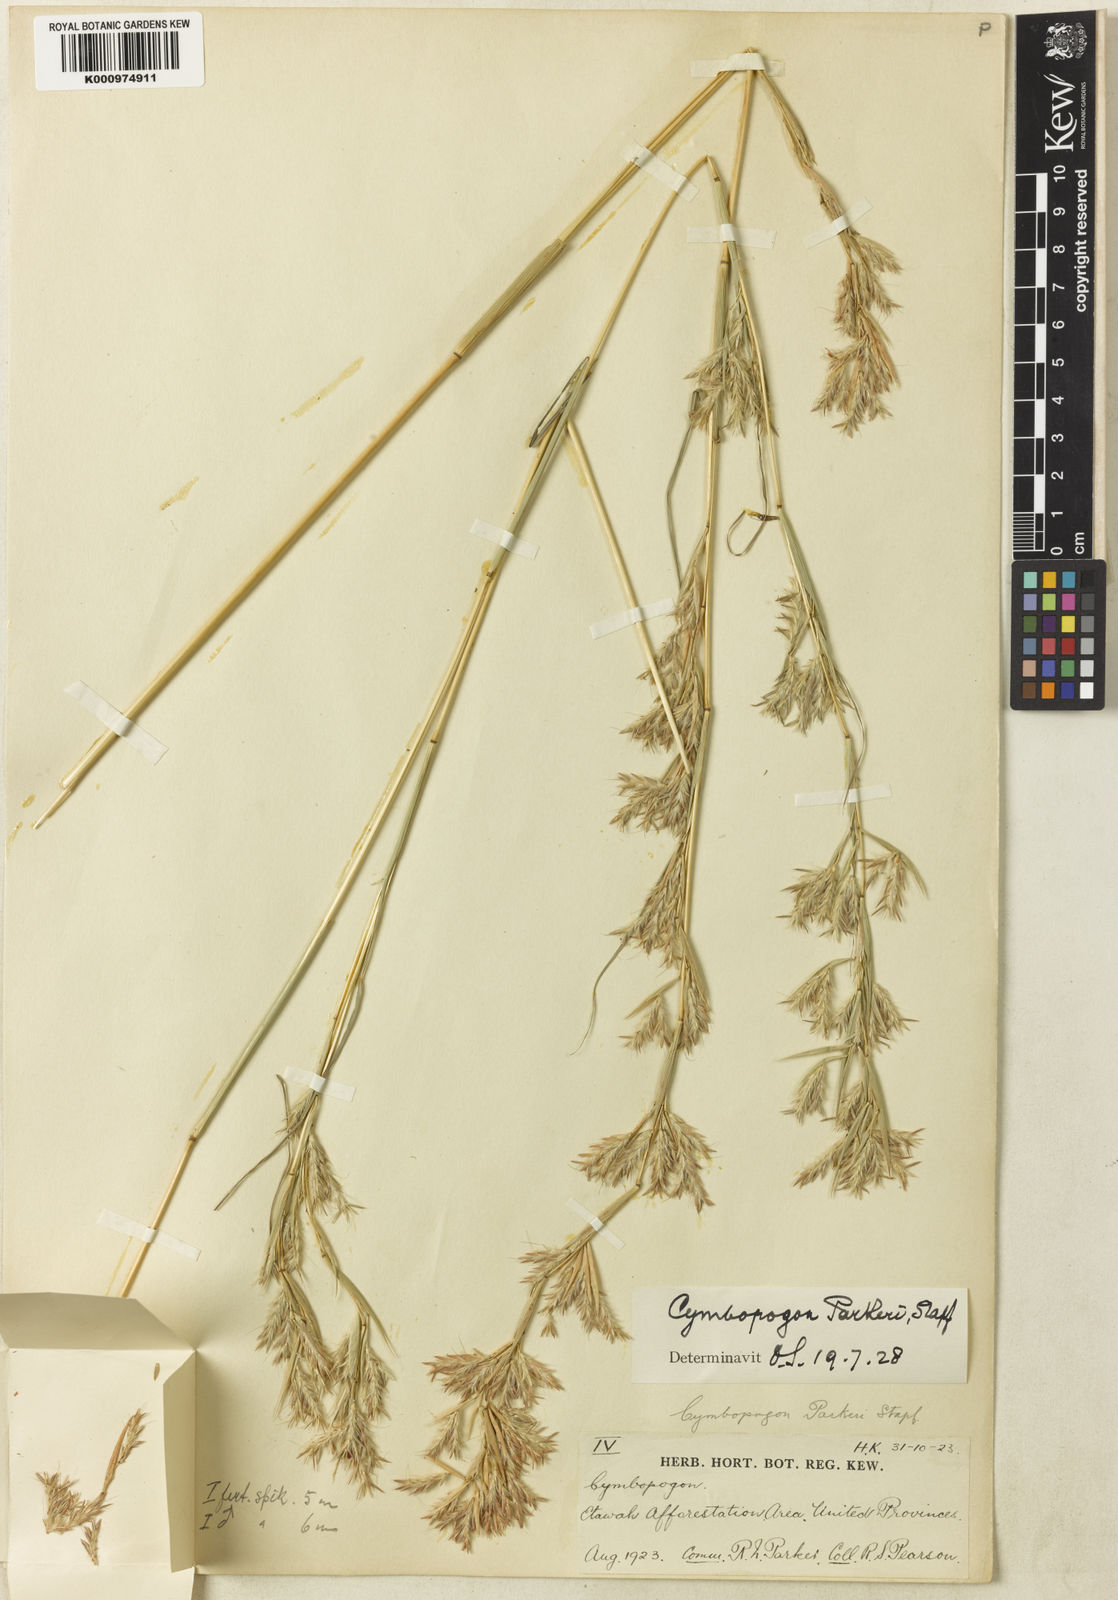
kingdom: Plantae
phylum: Tracheophyta
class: Liliopsida
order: Poales
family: Poaceae
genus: Cymbopogon
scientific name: Cymbopogon commutatus
